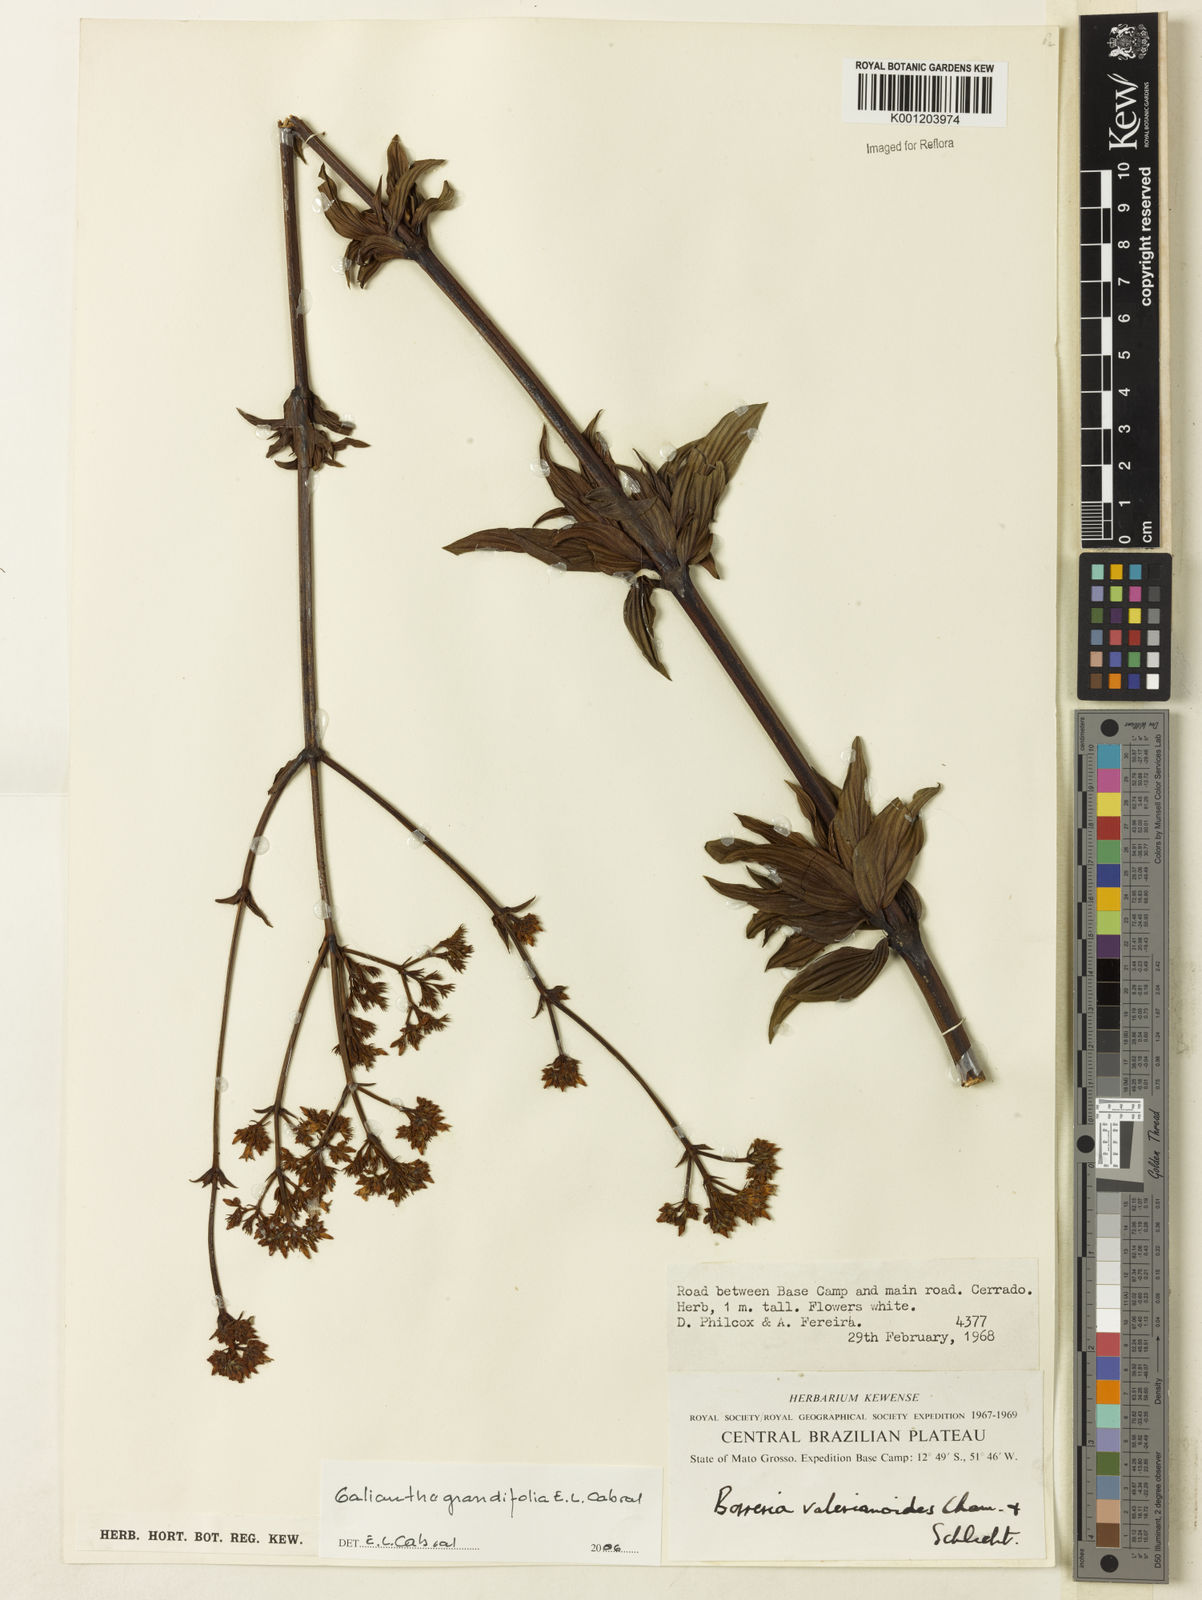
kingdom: Plantae
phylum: Tracheophyta
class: Magnoliopsida
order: Gentianales
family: Rubiaceae
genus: Galianthe
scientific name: Galianthe grandifolia
